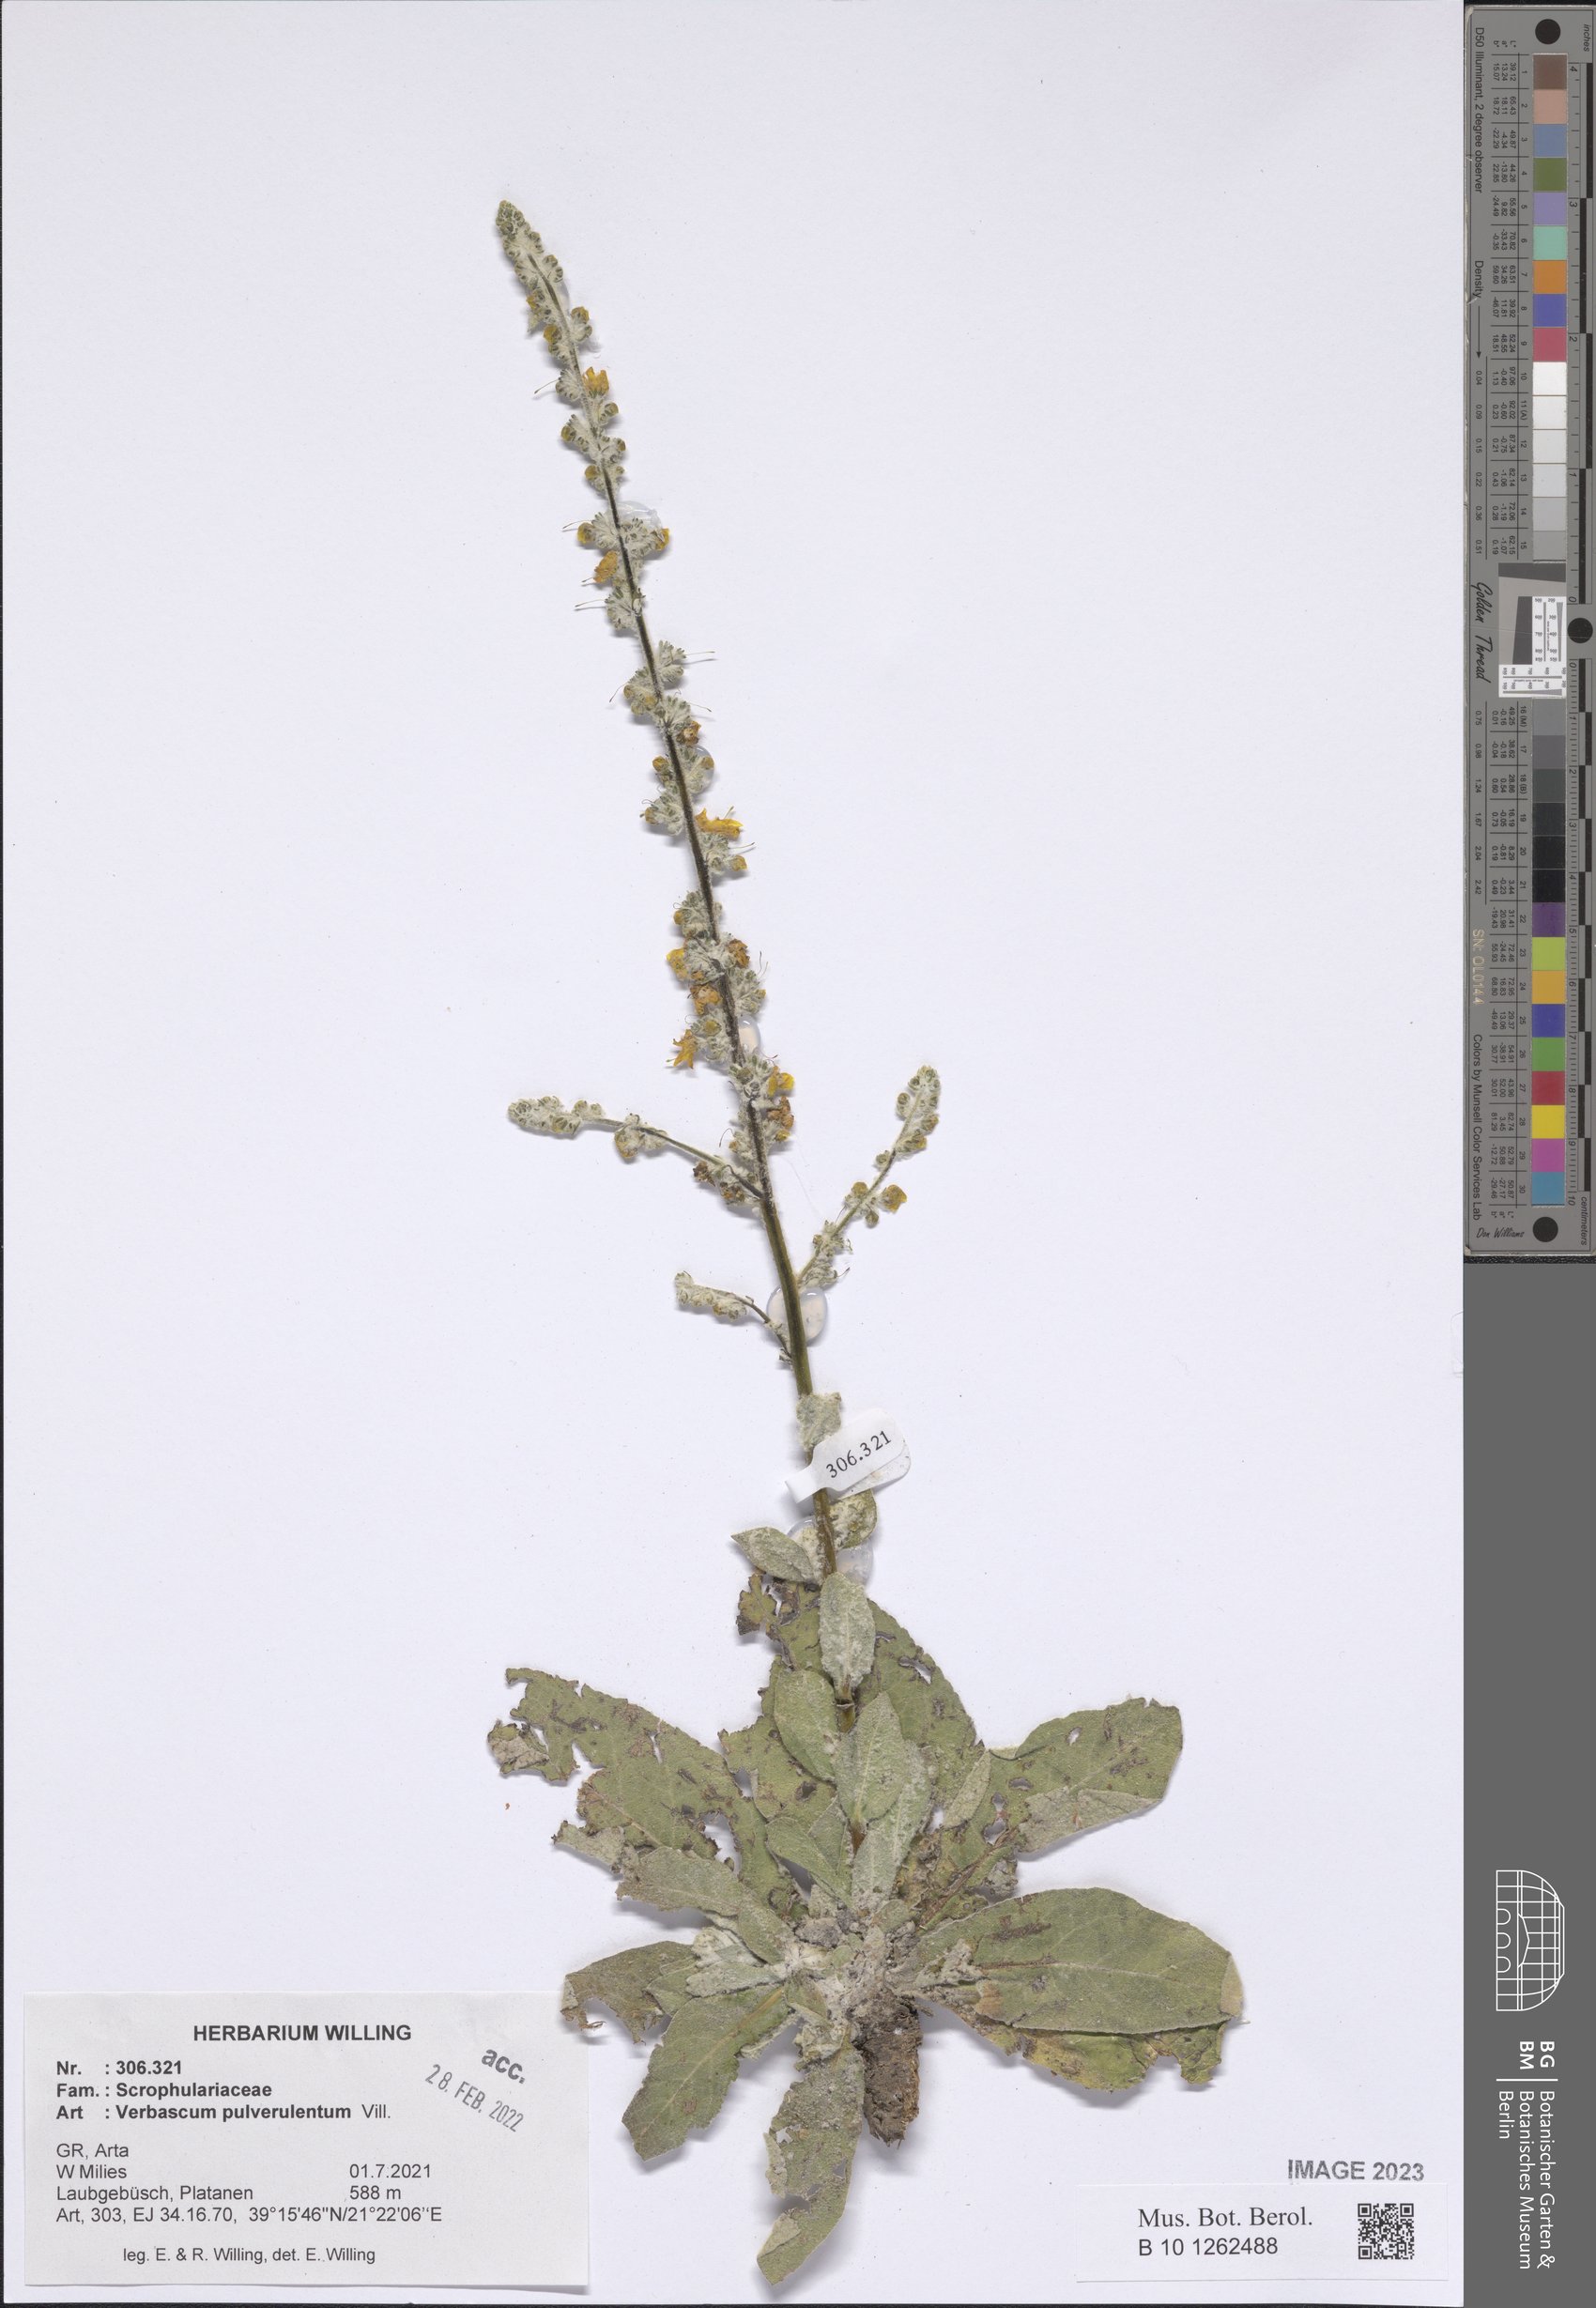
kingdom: Plantae
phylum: Tracheophyta
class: Magnoliopsida
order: Lamiales
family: Scrophulariaceae
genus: Verbascum
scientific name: Verbascum pulverulentum
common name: Broad-leaf mullein
